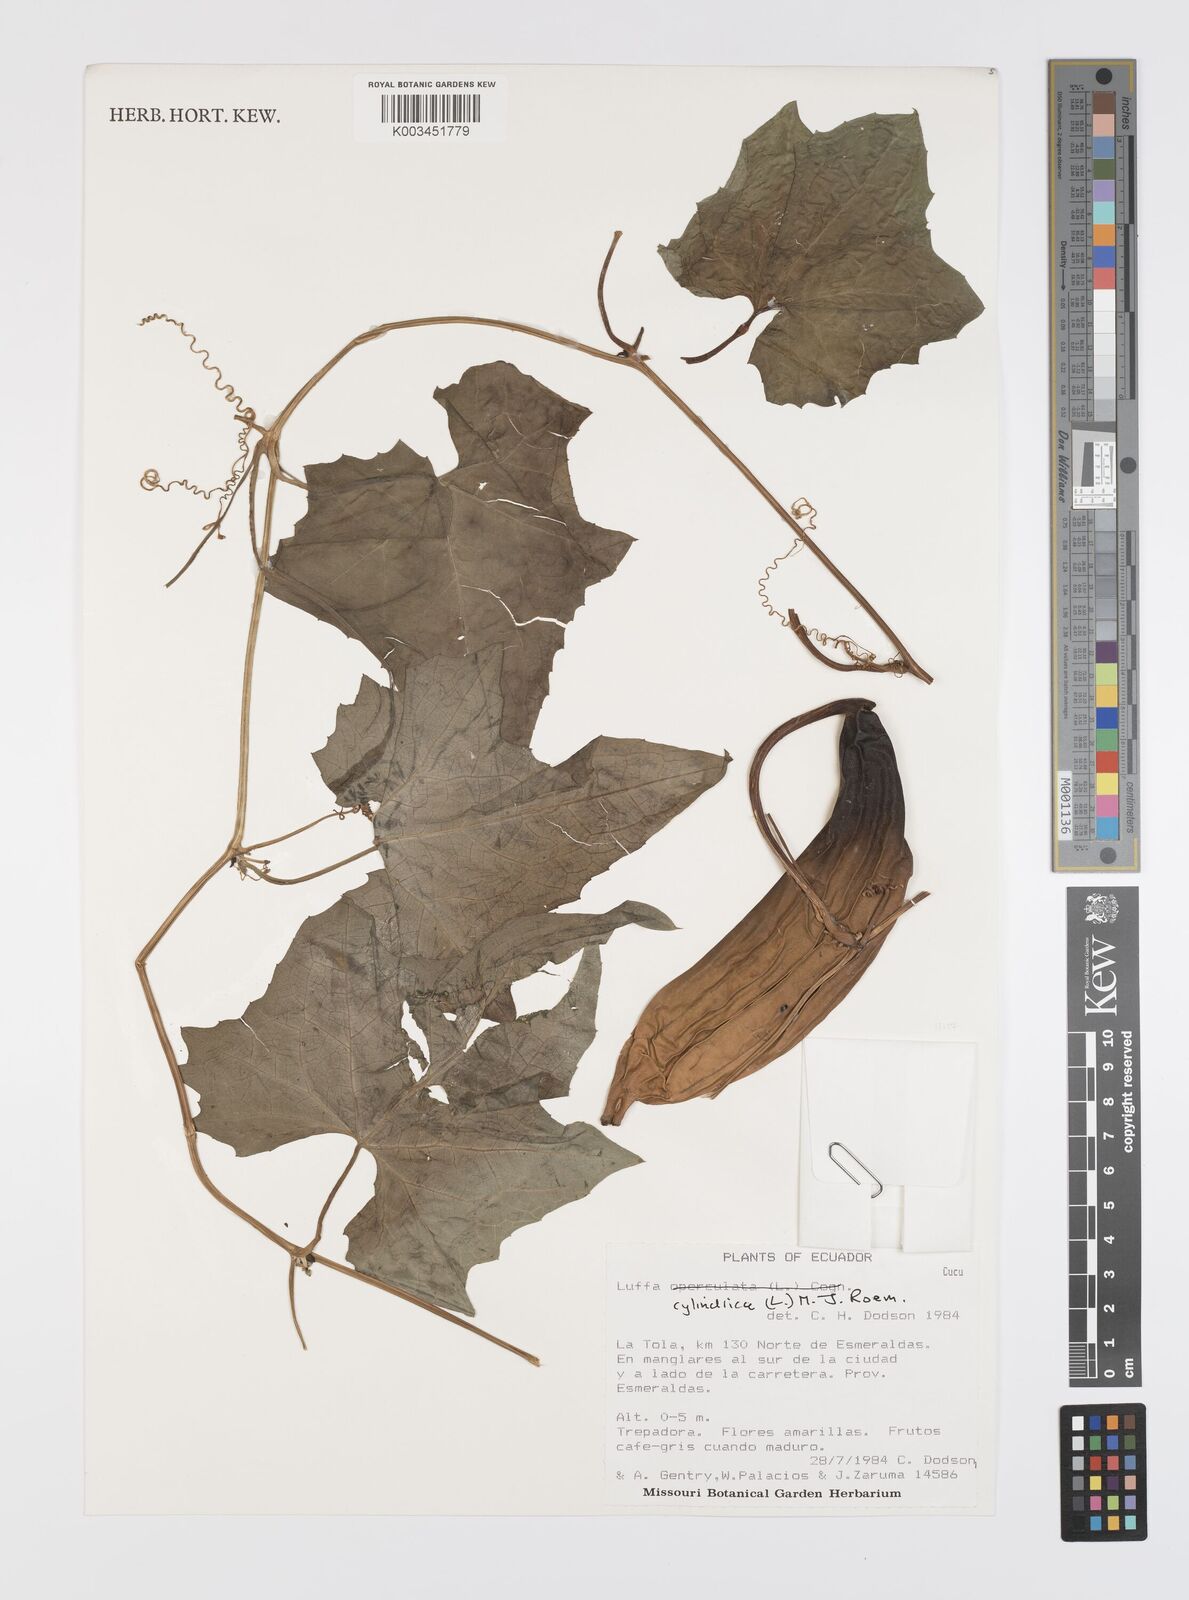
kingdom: Plantae
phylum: Tracheophyta
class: Magnoliopsida
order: Cucurbitales
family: Cucurbitaceae
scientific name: Cucurbitaceae
